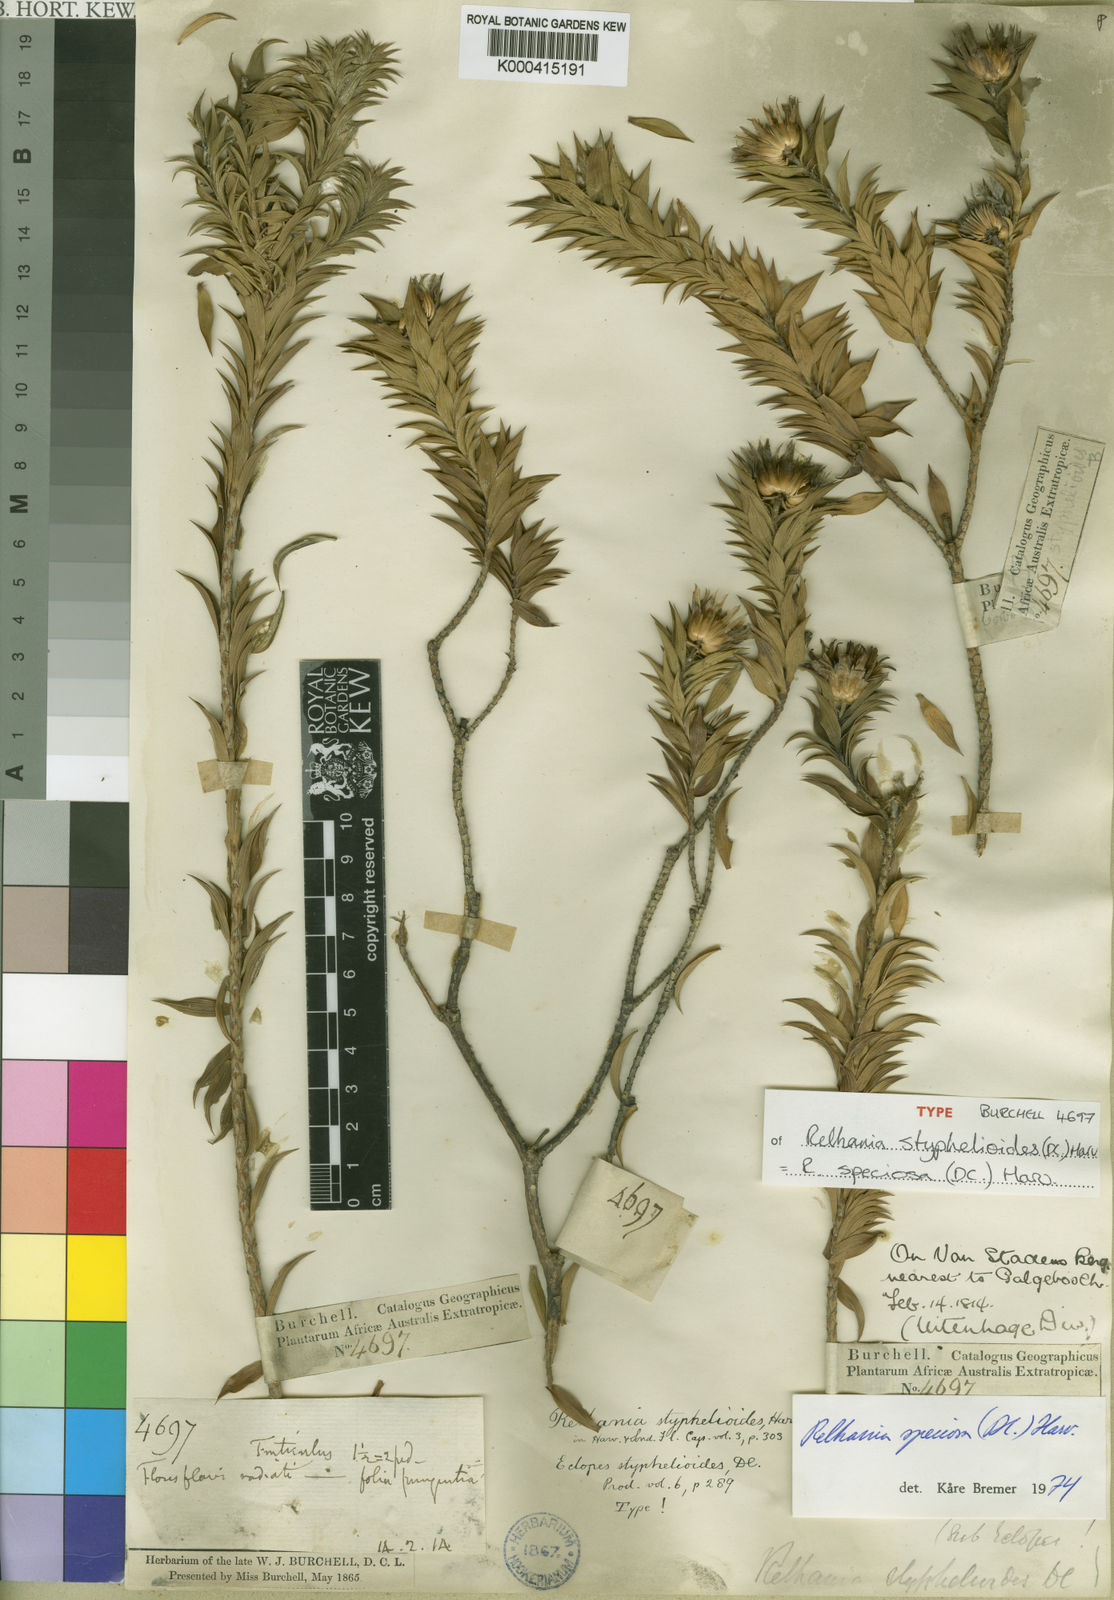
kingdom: Plantae
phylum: Tracheophyta
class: Magnoliopsida
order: Asterales
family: Asteraceae
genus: Oedera
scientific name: Oedera speciosa
